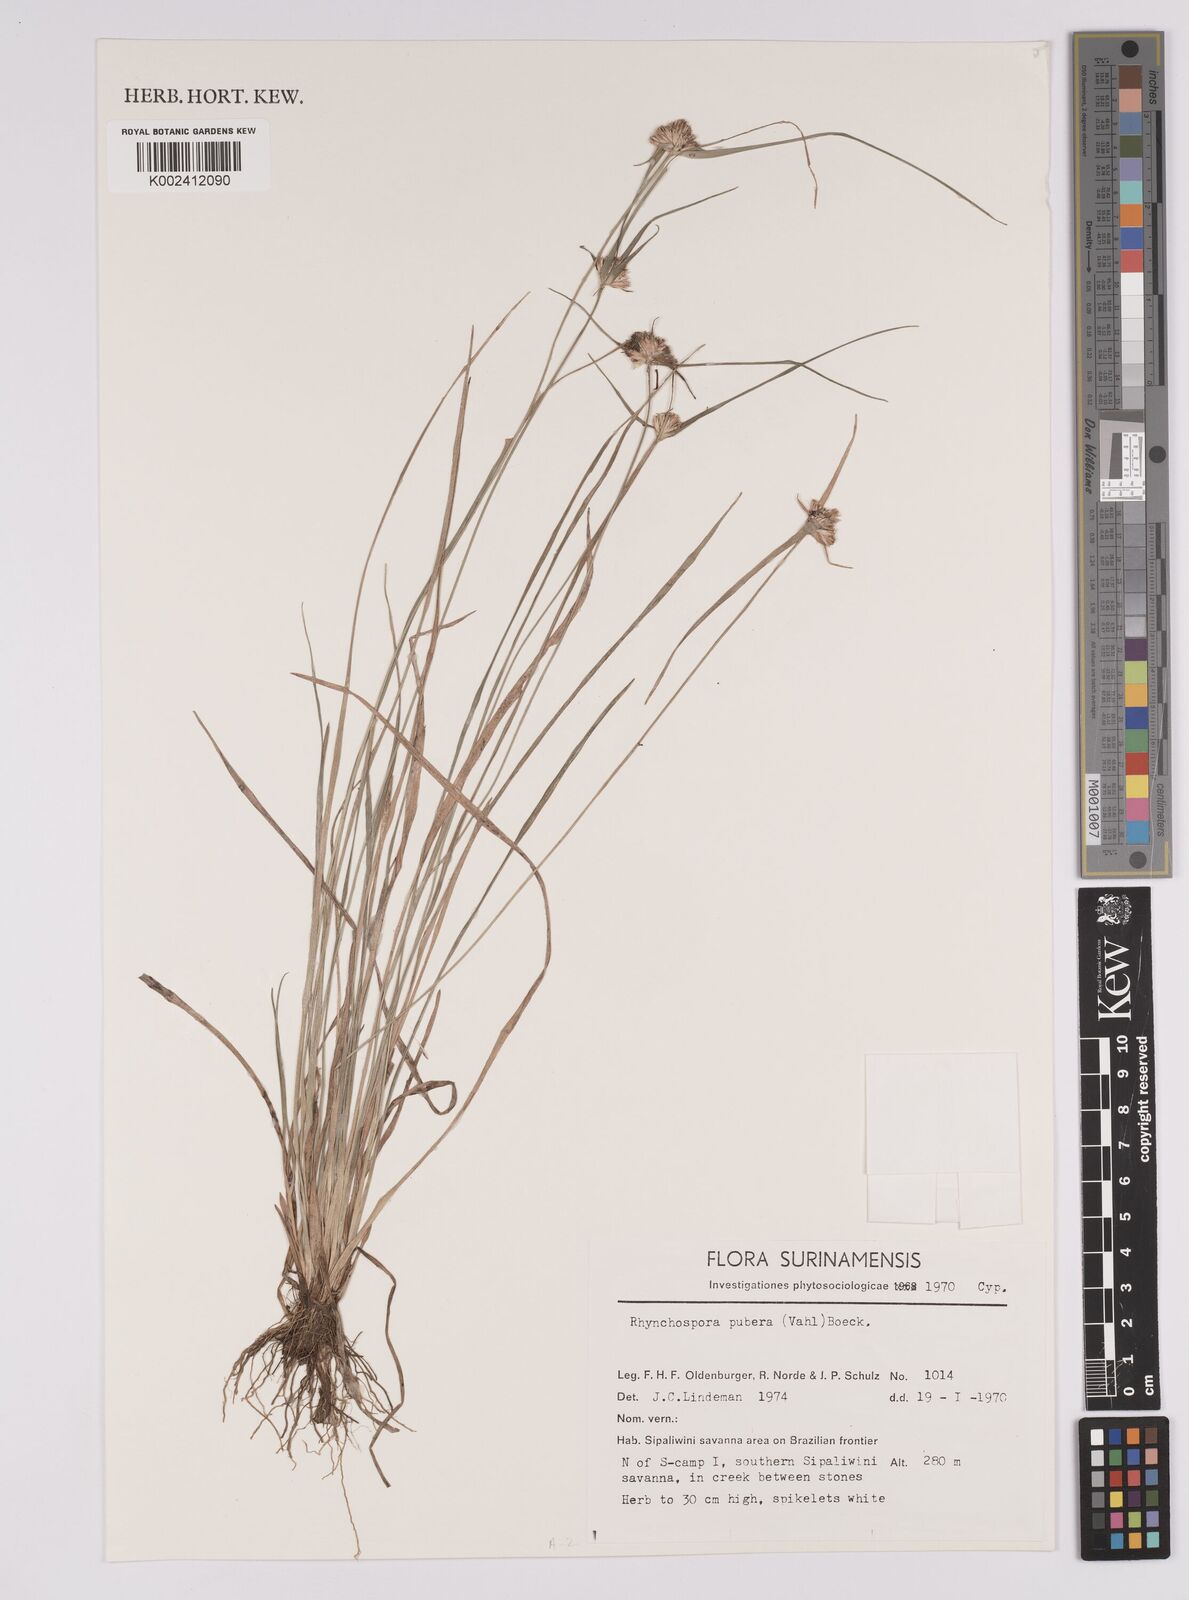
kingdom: Plantae
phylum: Tracheophyta
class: Liliopsida
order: Poales
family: Cyperaceae
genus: Rhynchospora
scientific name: Rhynchospora pubera
